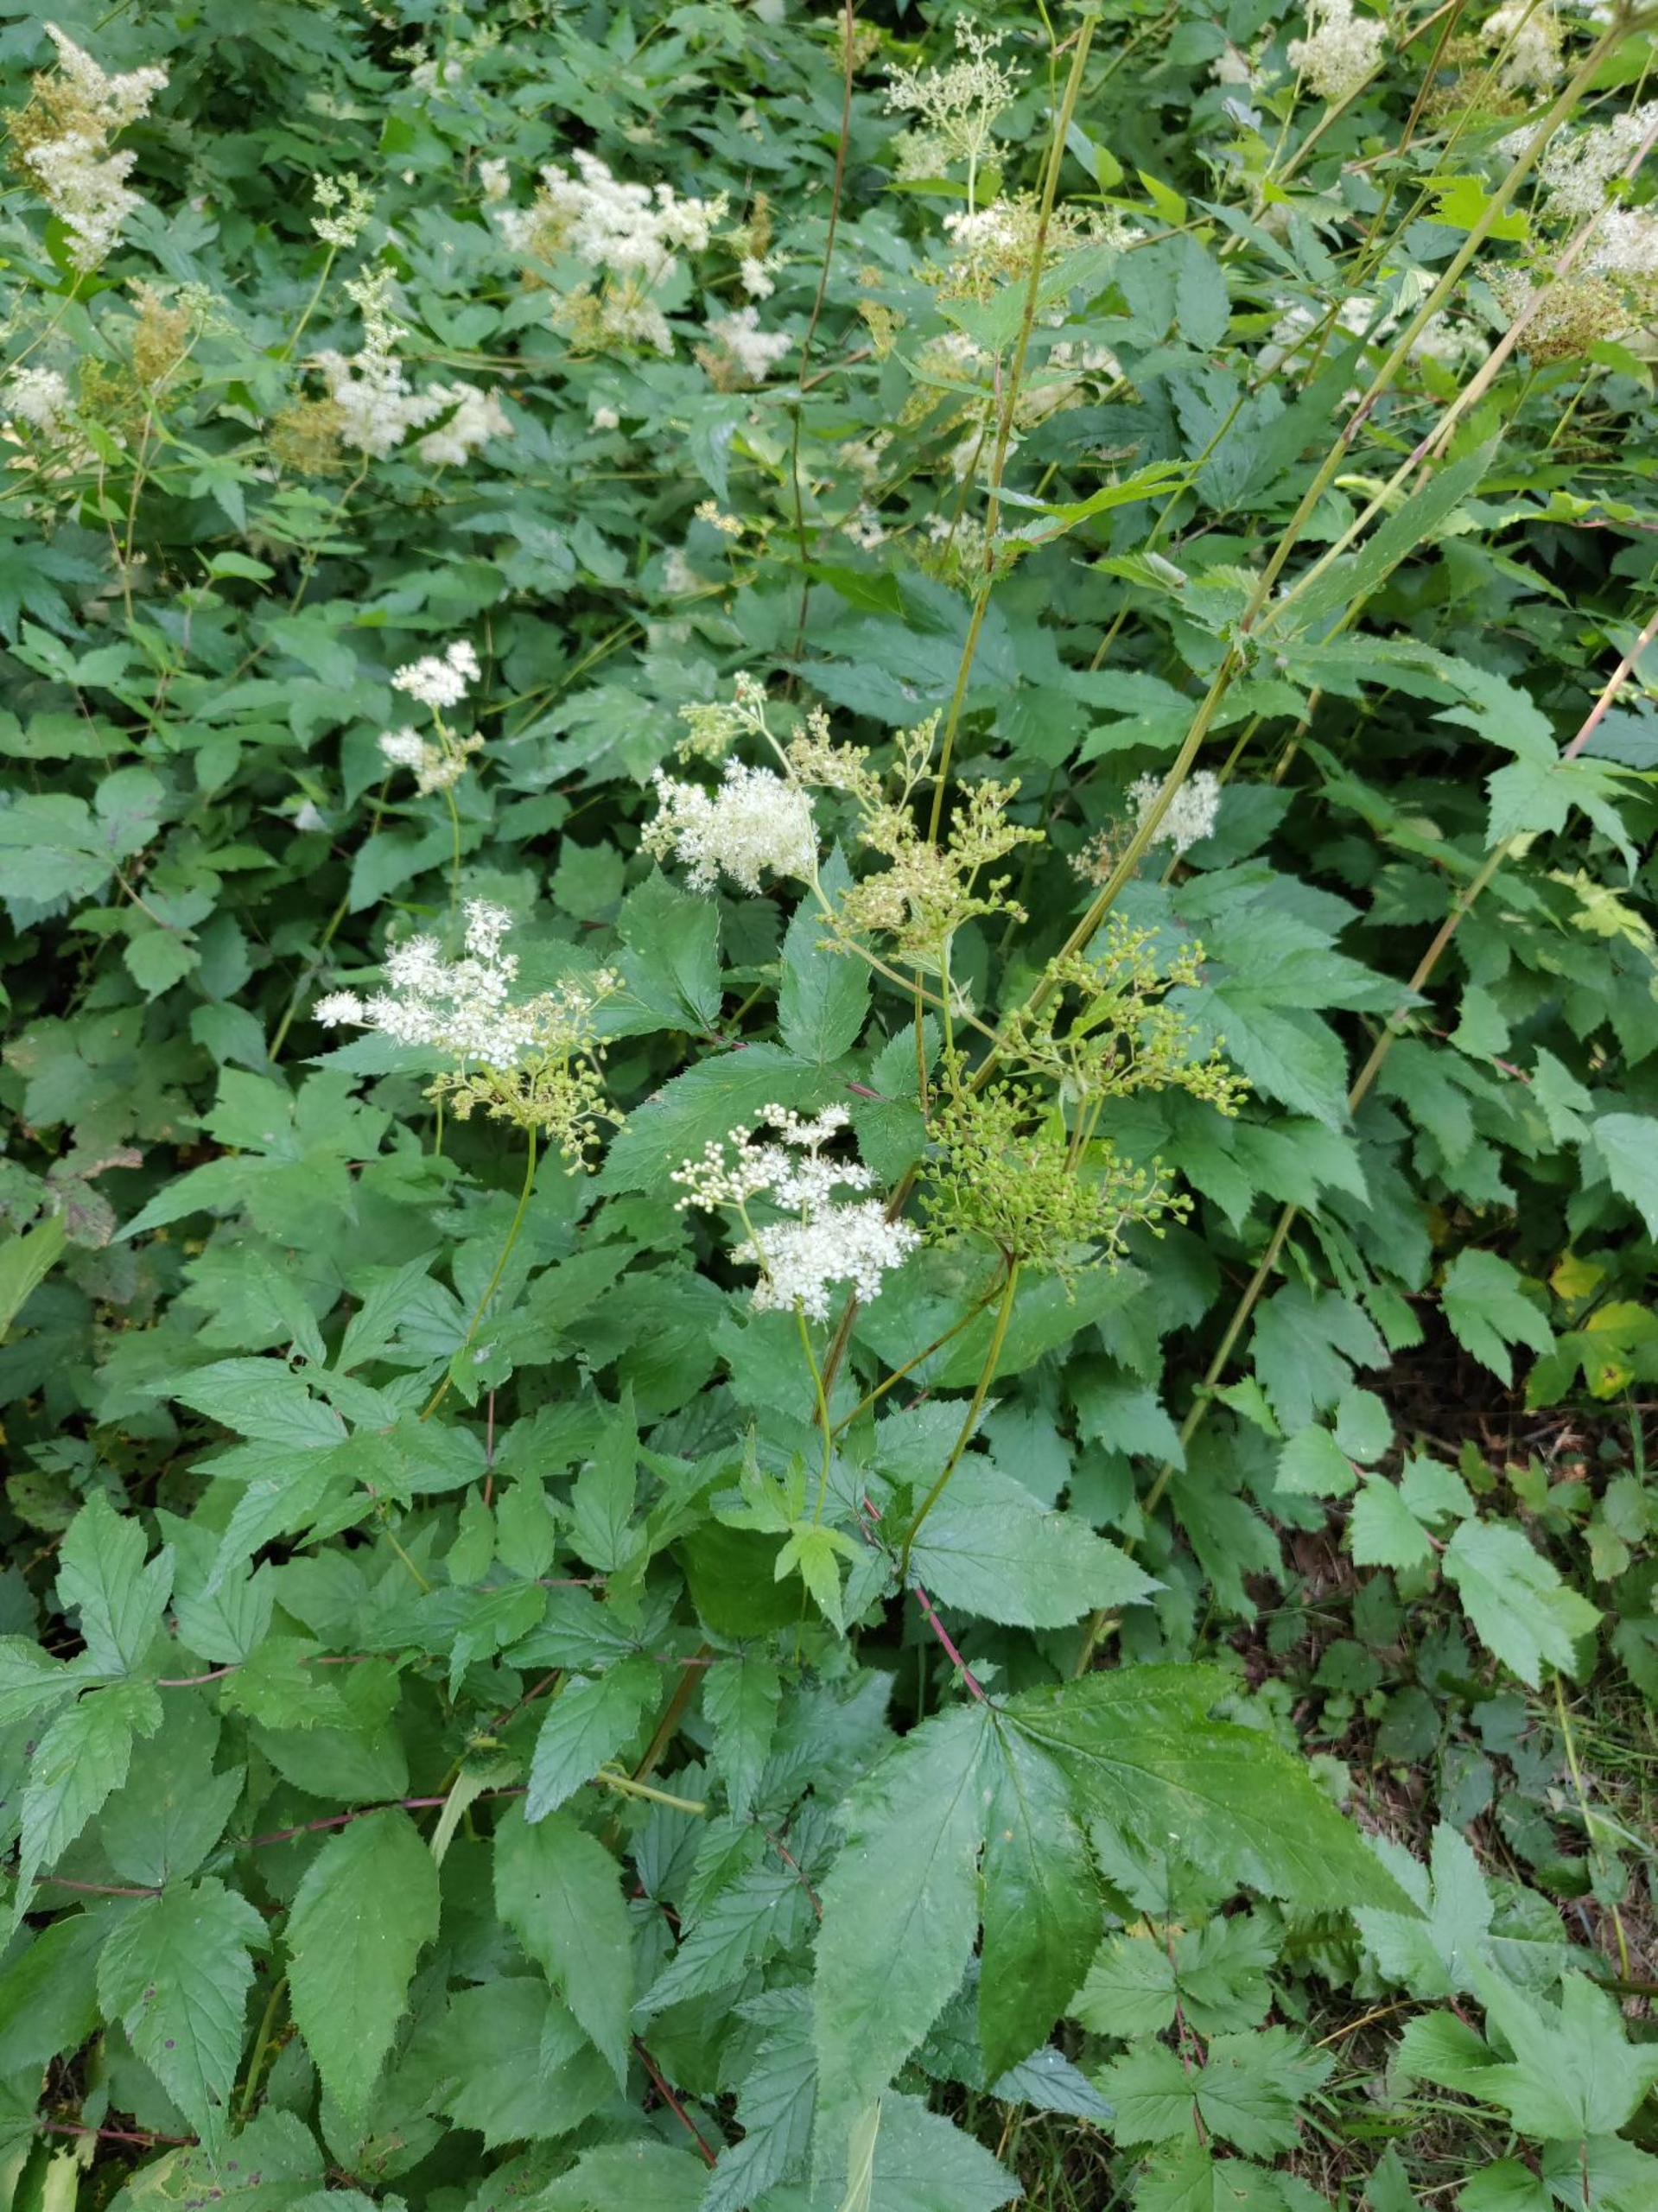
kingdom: Plantae
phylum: Tracheophyta
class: Magnoliopsida
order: Rosales
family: Rosaceae
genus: Filipendula
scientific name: Filipendula ulmaria
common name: Almindelig mjødurt
